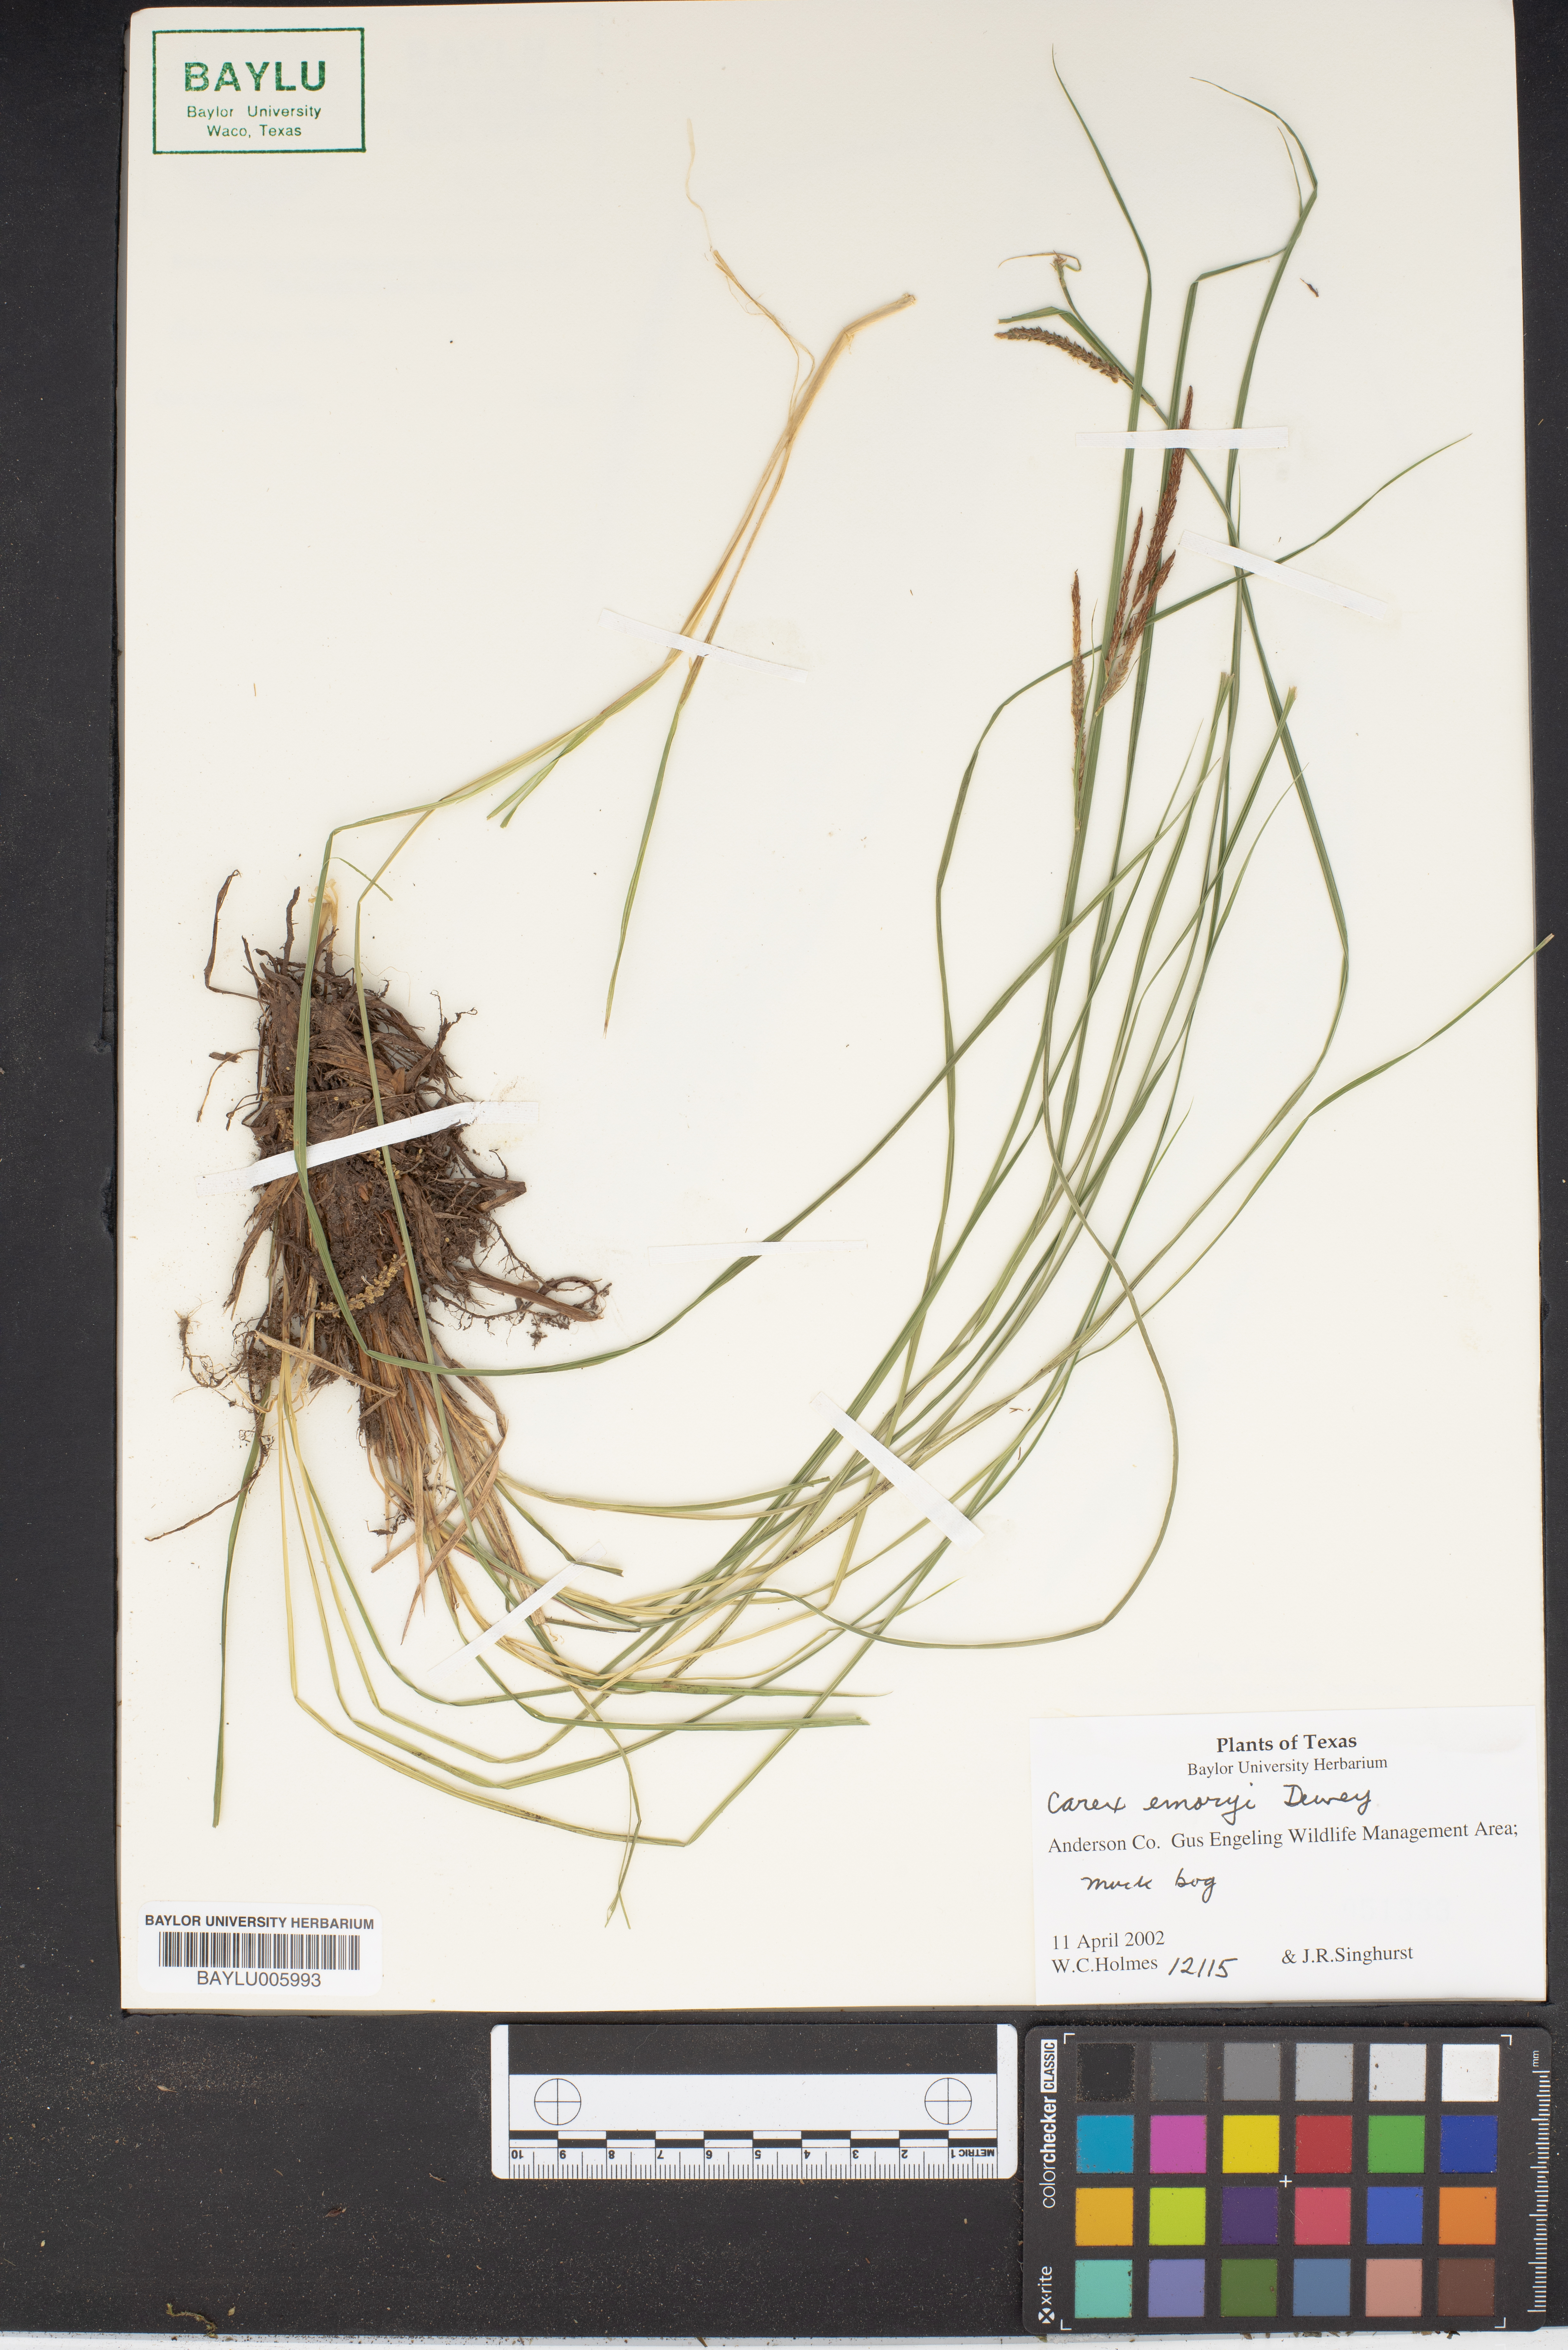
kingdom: Plantae
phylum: Tracheophyta
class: Liliopsida
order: Poales
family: Cyperaceae
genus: Carex
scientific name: Carex emoryi
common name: Emory's sedge
